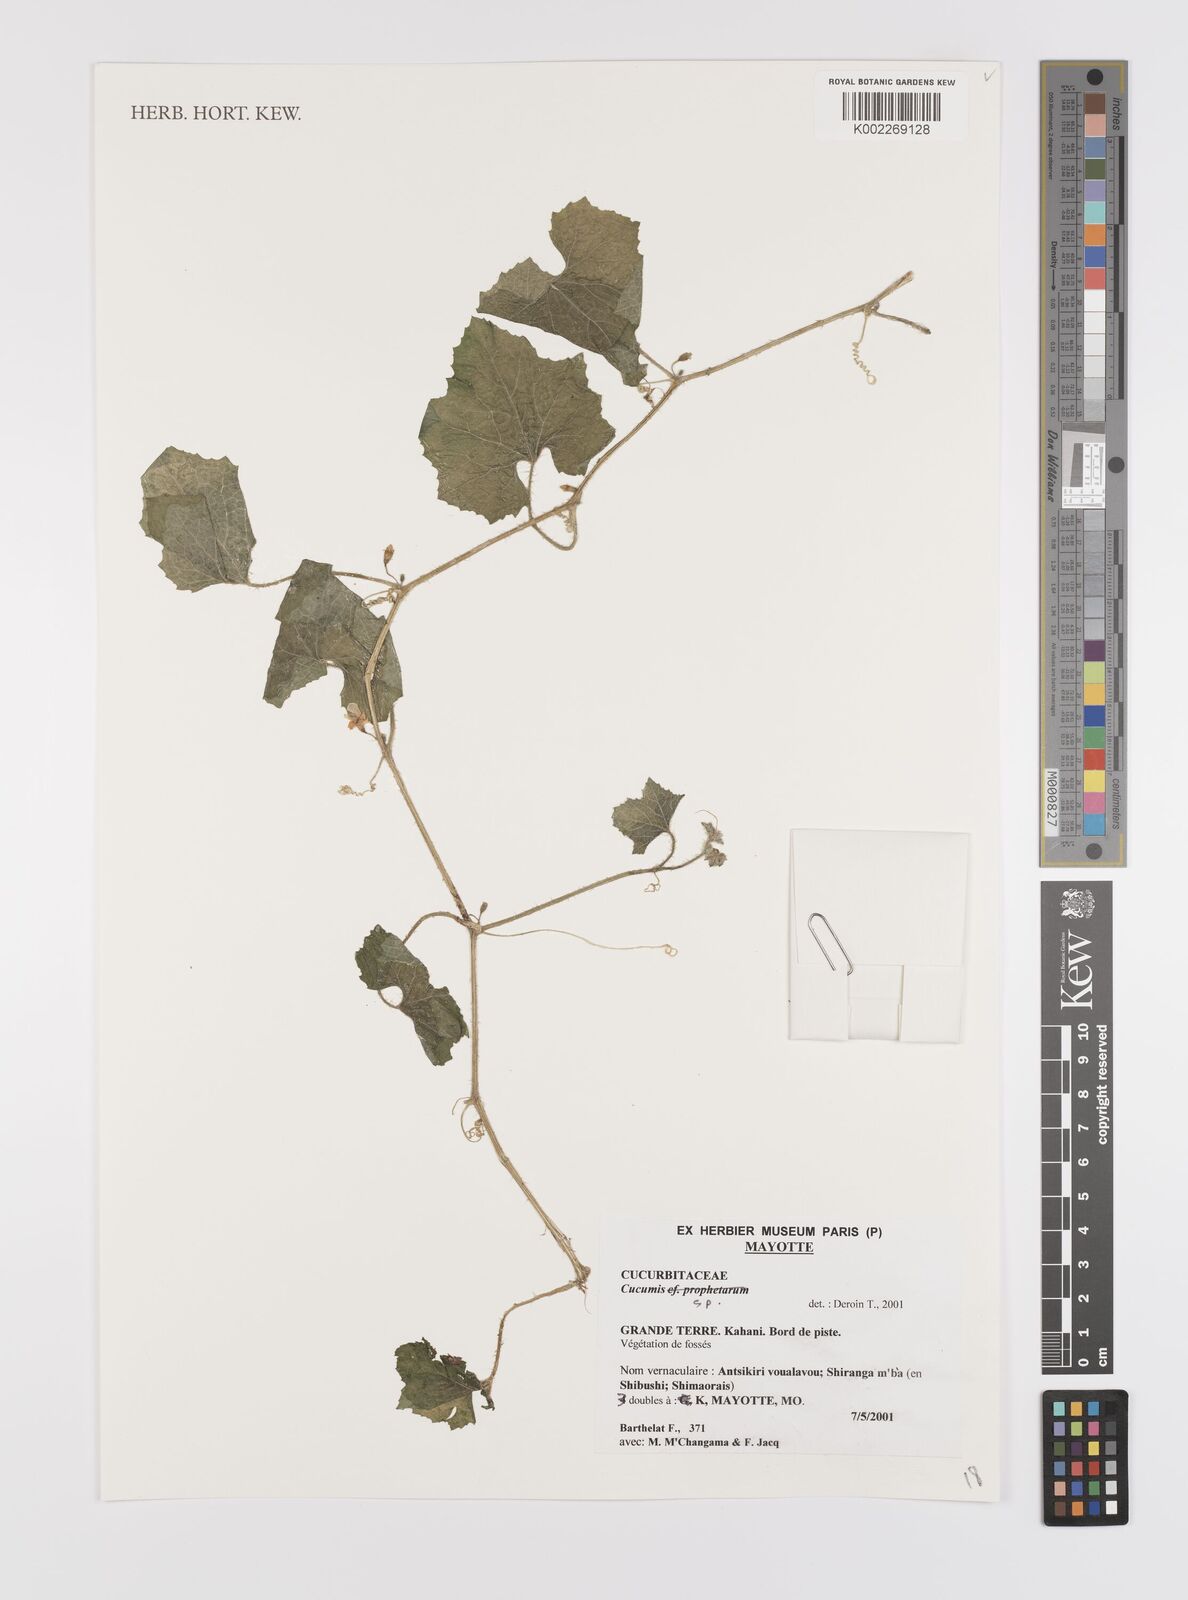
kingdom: Plantae
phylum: Tracheophyta
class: Magnoliopsida
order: Cucurbitales
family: Cucurbitaceae
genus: Cucumis
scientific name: Cucumis
